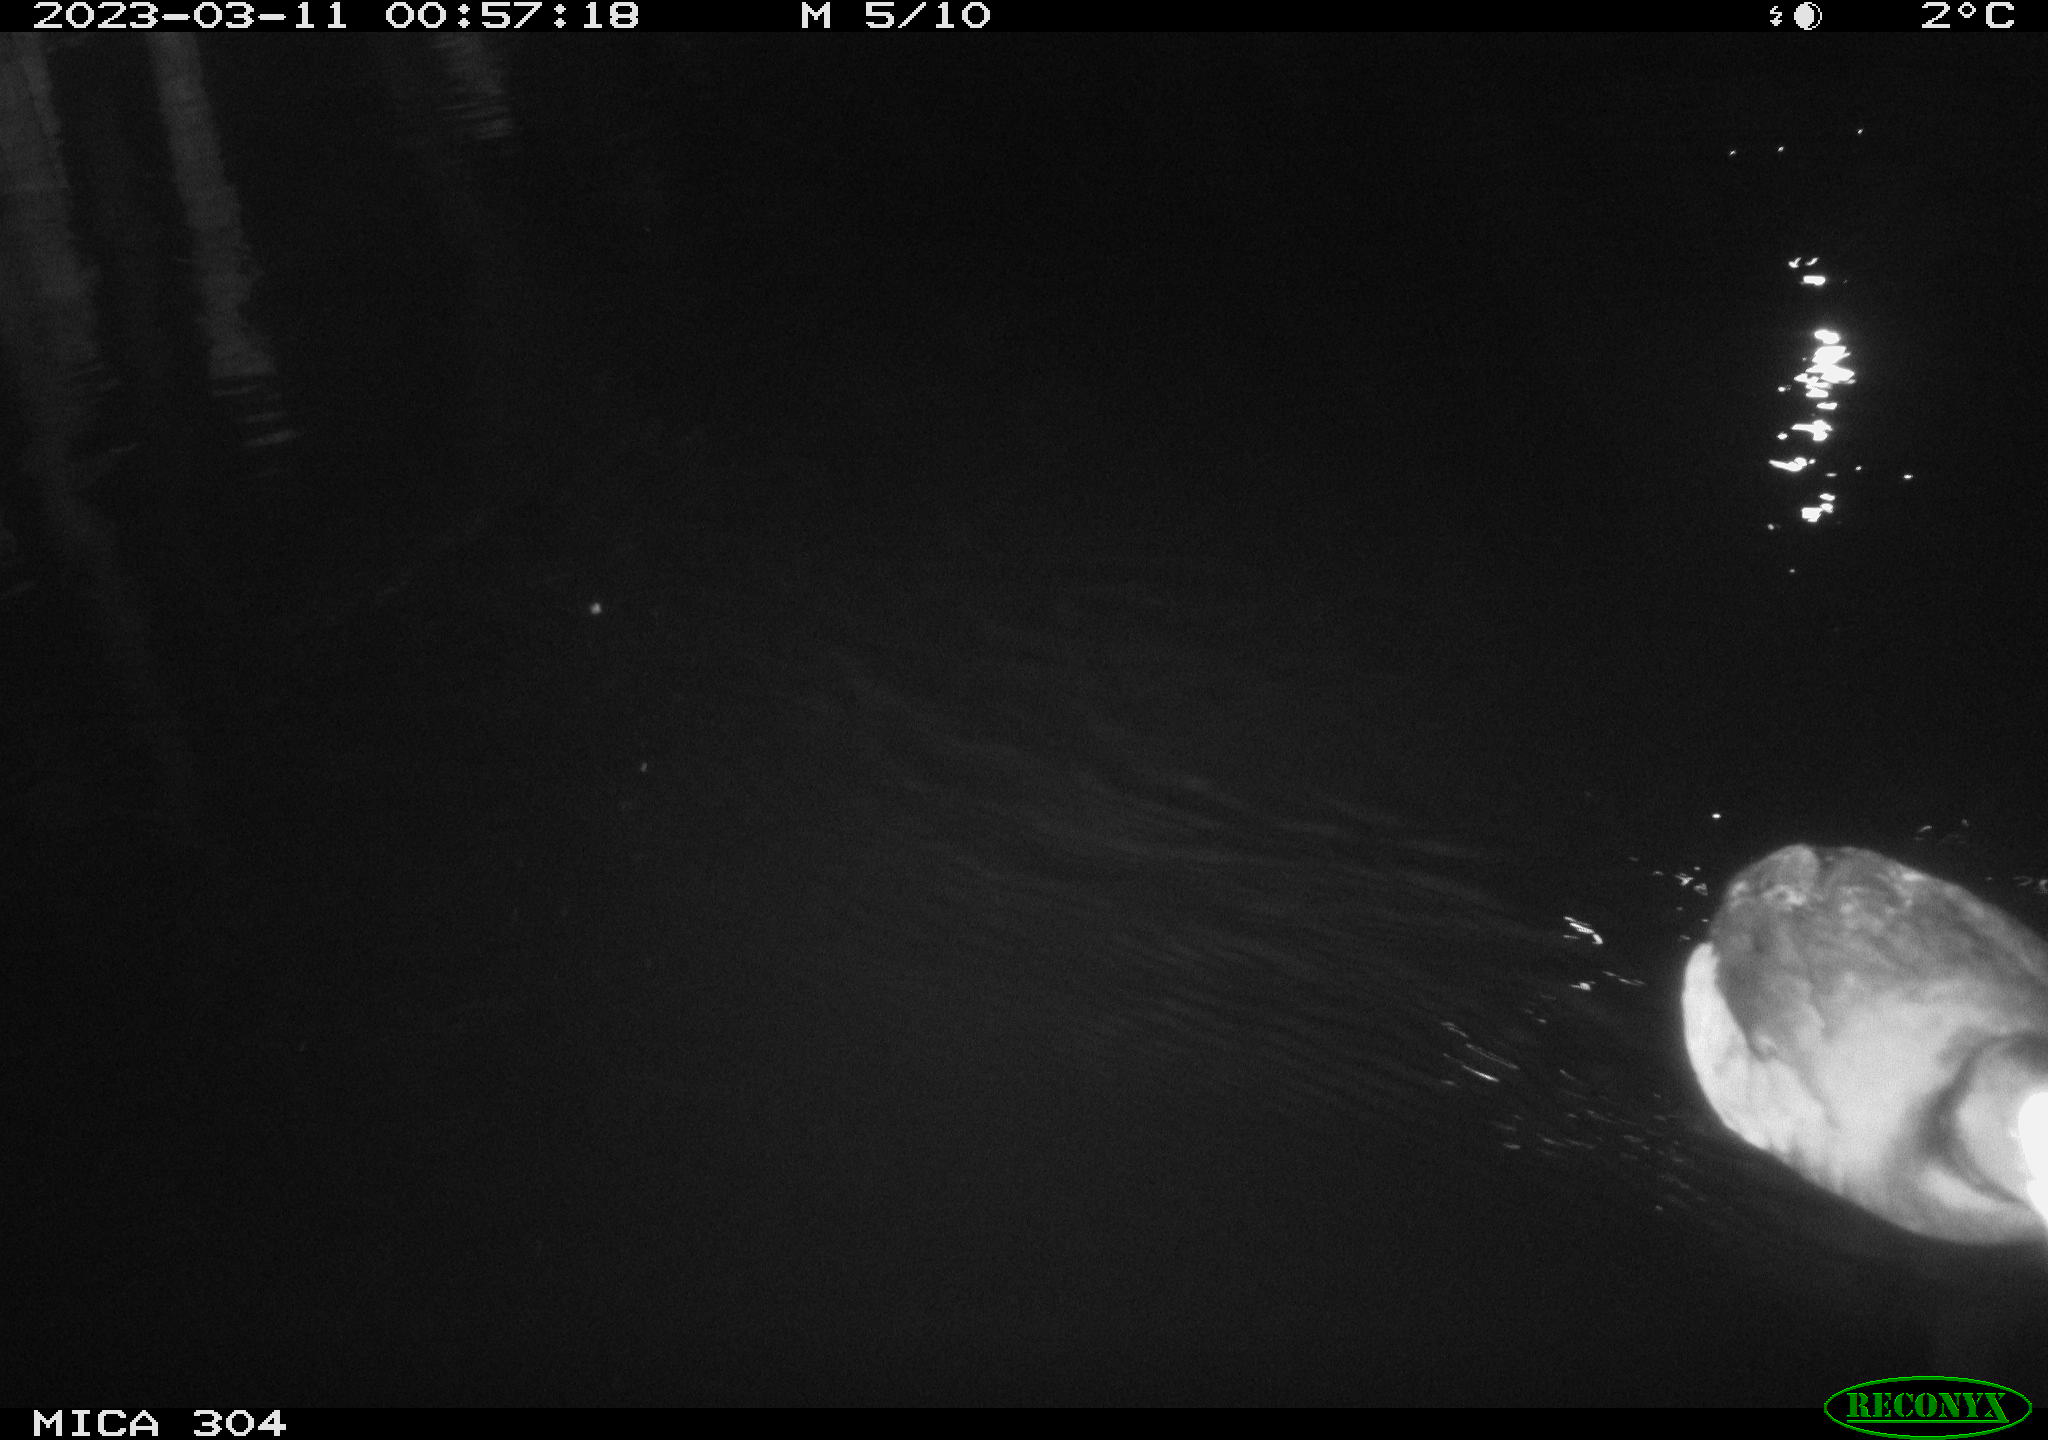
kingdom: Animalia
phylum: Chordata
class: Aves
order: Anseriformes
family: Anatidae
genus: Anas
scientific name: Anas
